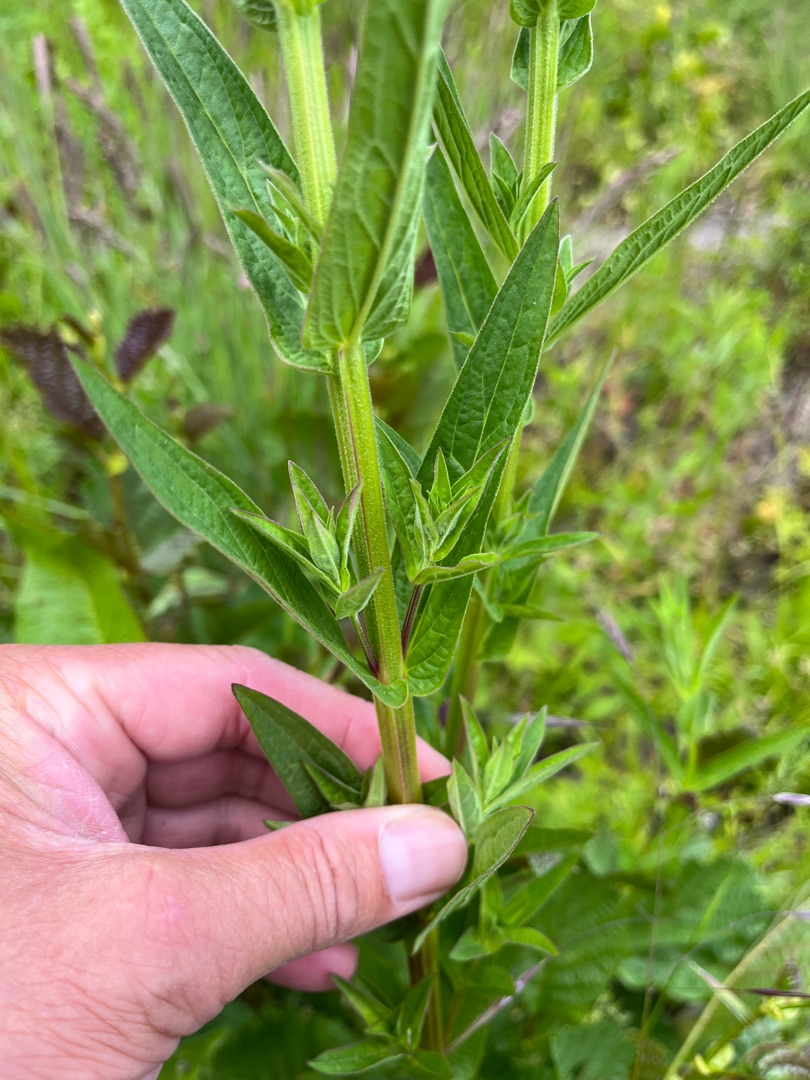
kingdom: Plantae
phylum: Tracheophyta
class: Magnoliopsida
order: Myrtales
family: Lythraceae
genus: Lythrum
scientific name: Lythrum salicaria
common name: Kattehale
